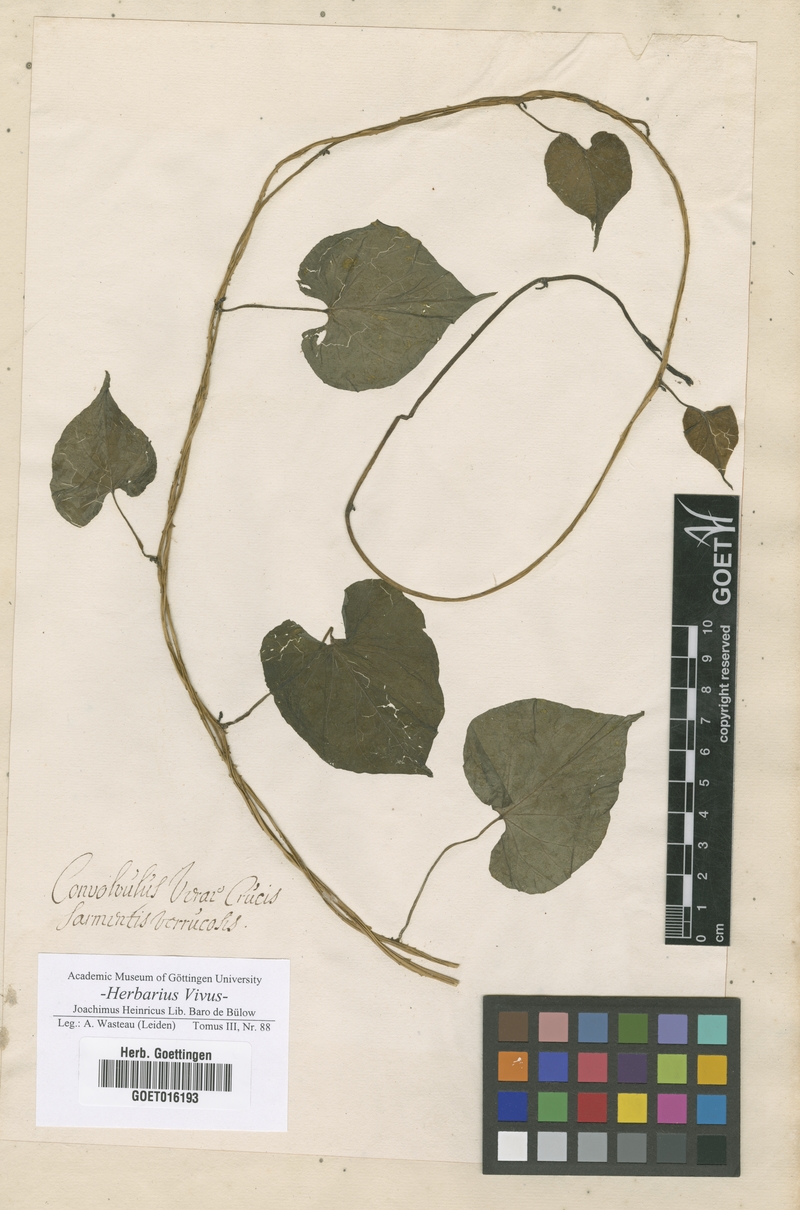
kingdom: Plantae
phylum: Tracheophyta
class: Magnoliopsida
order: Solanales
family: Convolvulaceae
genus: Convolvulus
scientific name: Convolvulus
